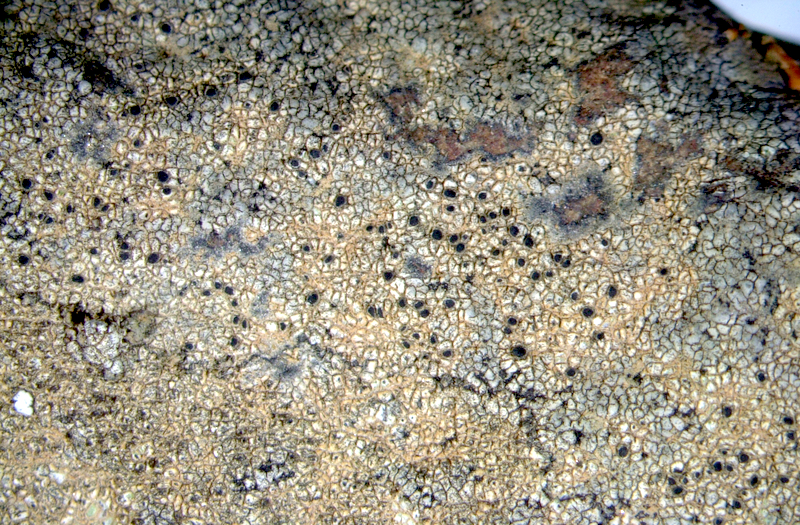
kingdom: Fungi
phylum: Ascomycota
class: Lecanoromycetes
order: Lecanorales
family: Parmeliaceae
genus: Xanthoparmelia
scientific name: Xanthoparmelia walteri
